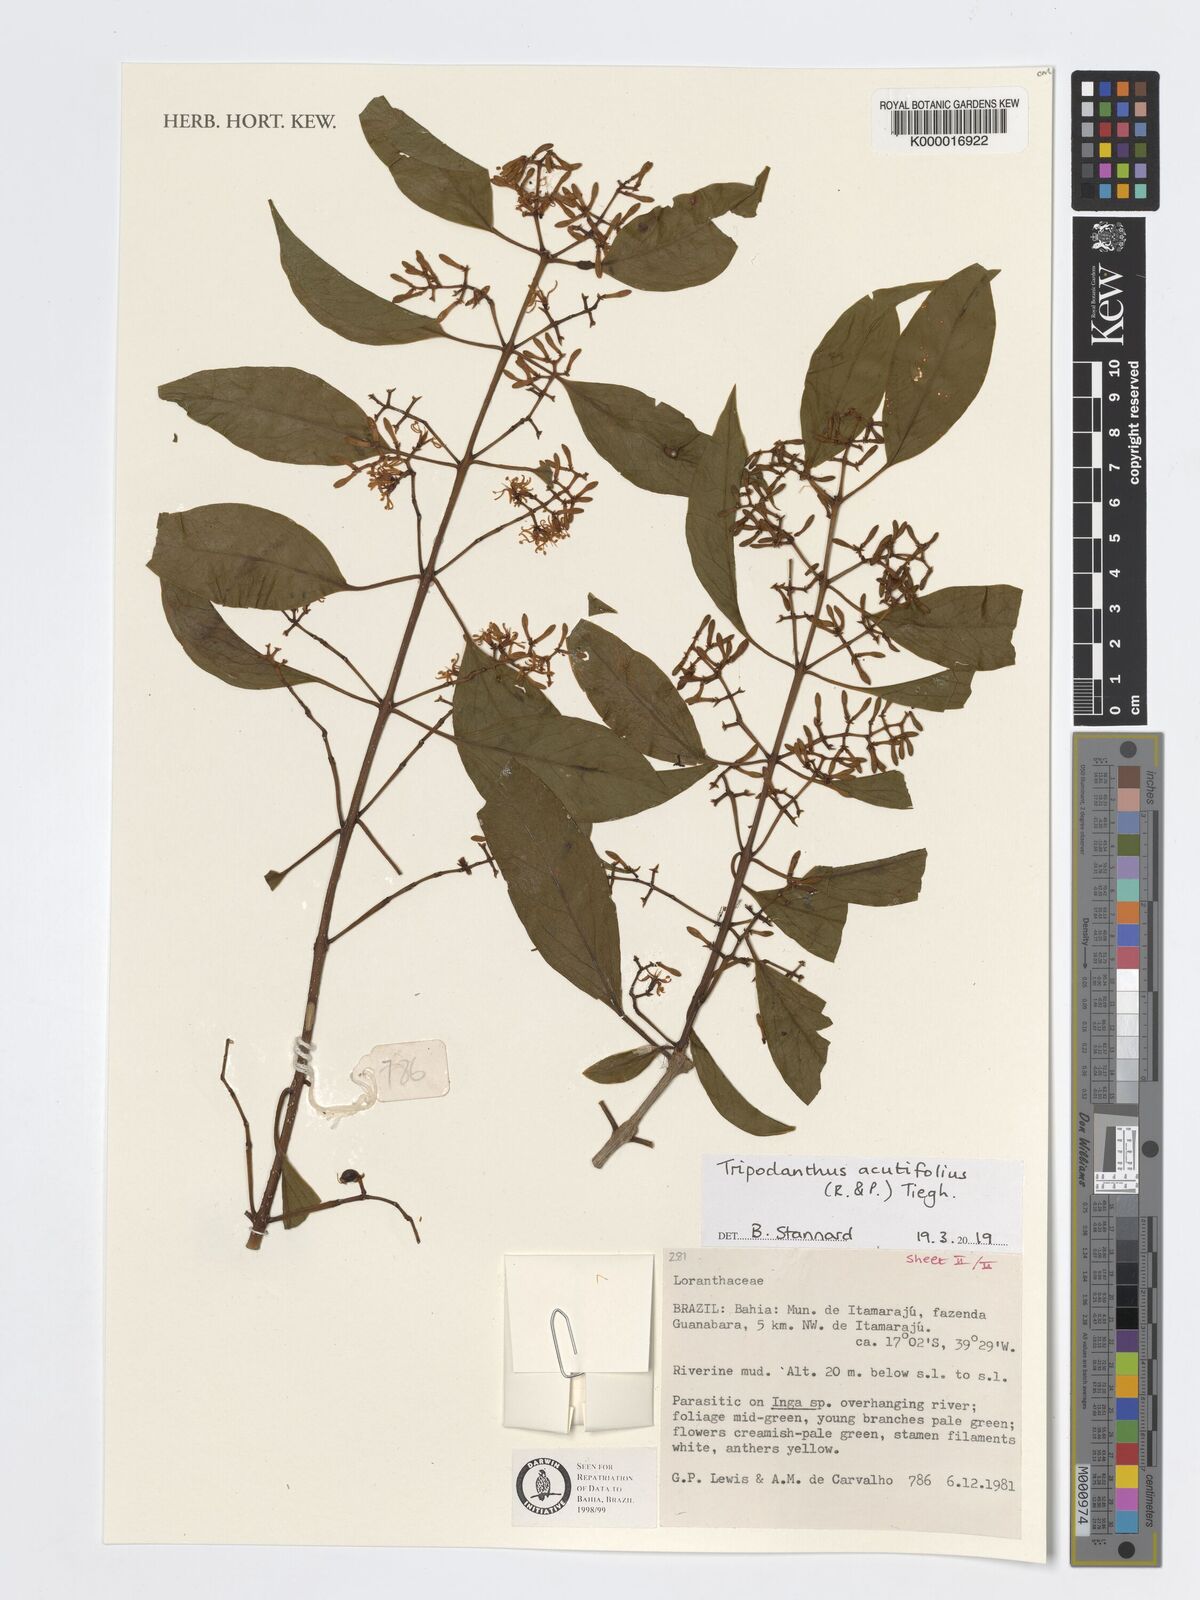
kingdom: Plantae
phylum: Tracheophyta
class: Magnoliopsida
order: Santalales
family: Loranthaceae
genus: Tripodanthus
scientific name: Tripodanthus acutifolius
